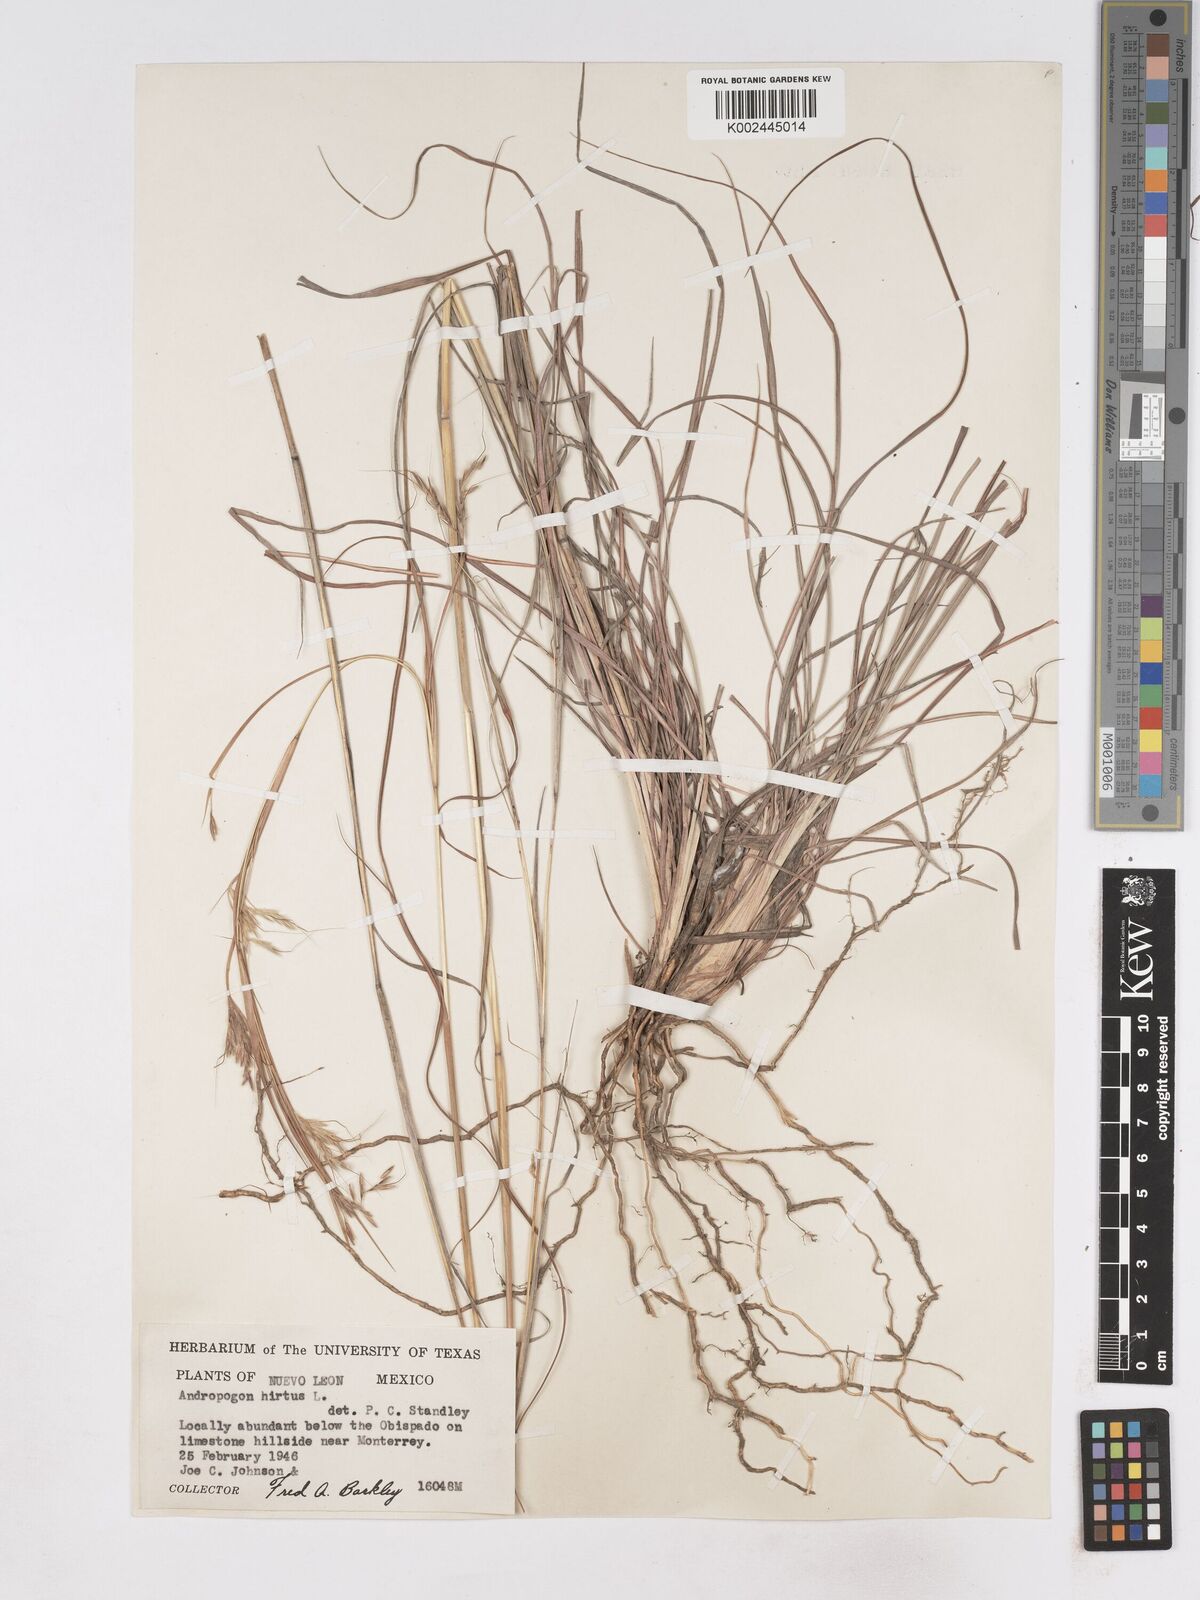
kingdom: Plantae
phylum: Tracheophyta
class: Liliopsida
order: Poales
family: Poaceae
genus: Hyparrhenia
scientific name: Hyparrhenia hirta
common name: Thatching grass
